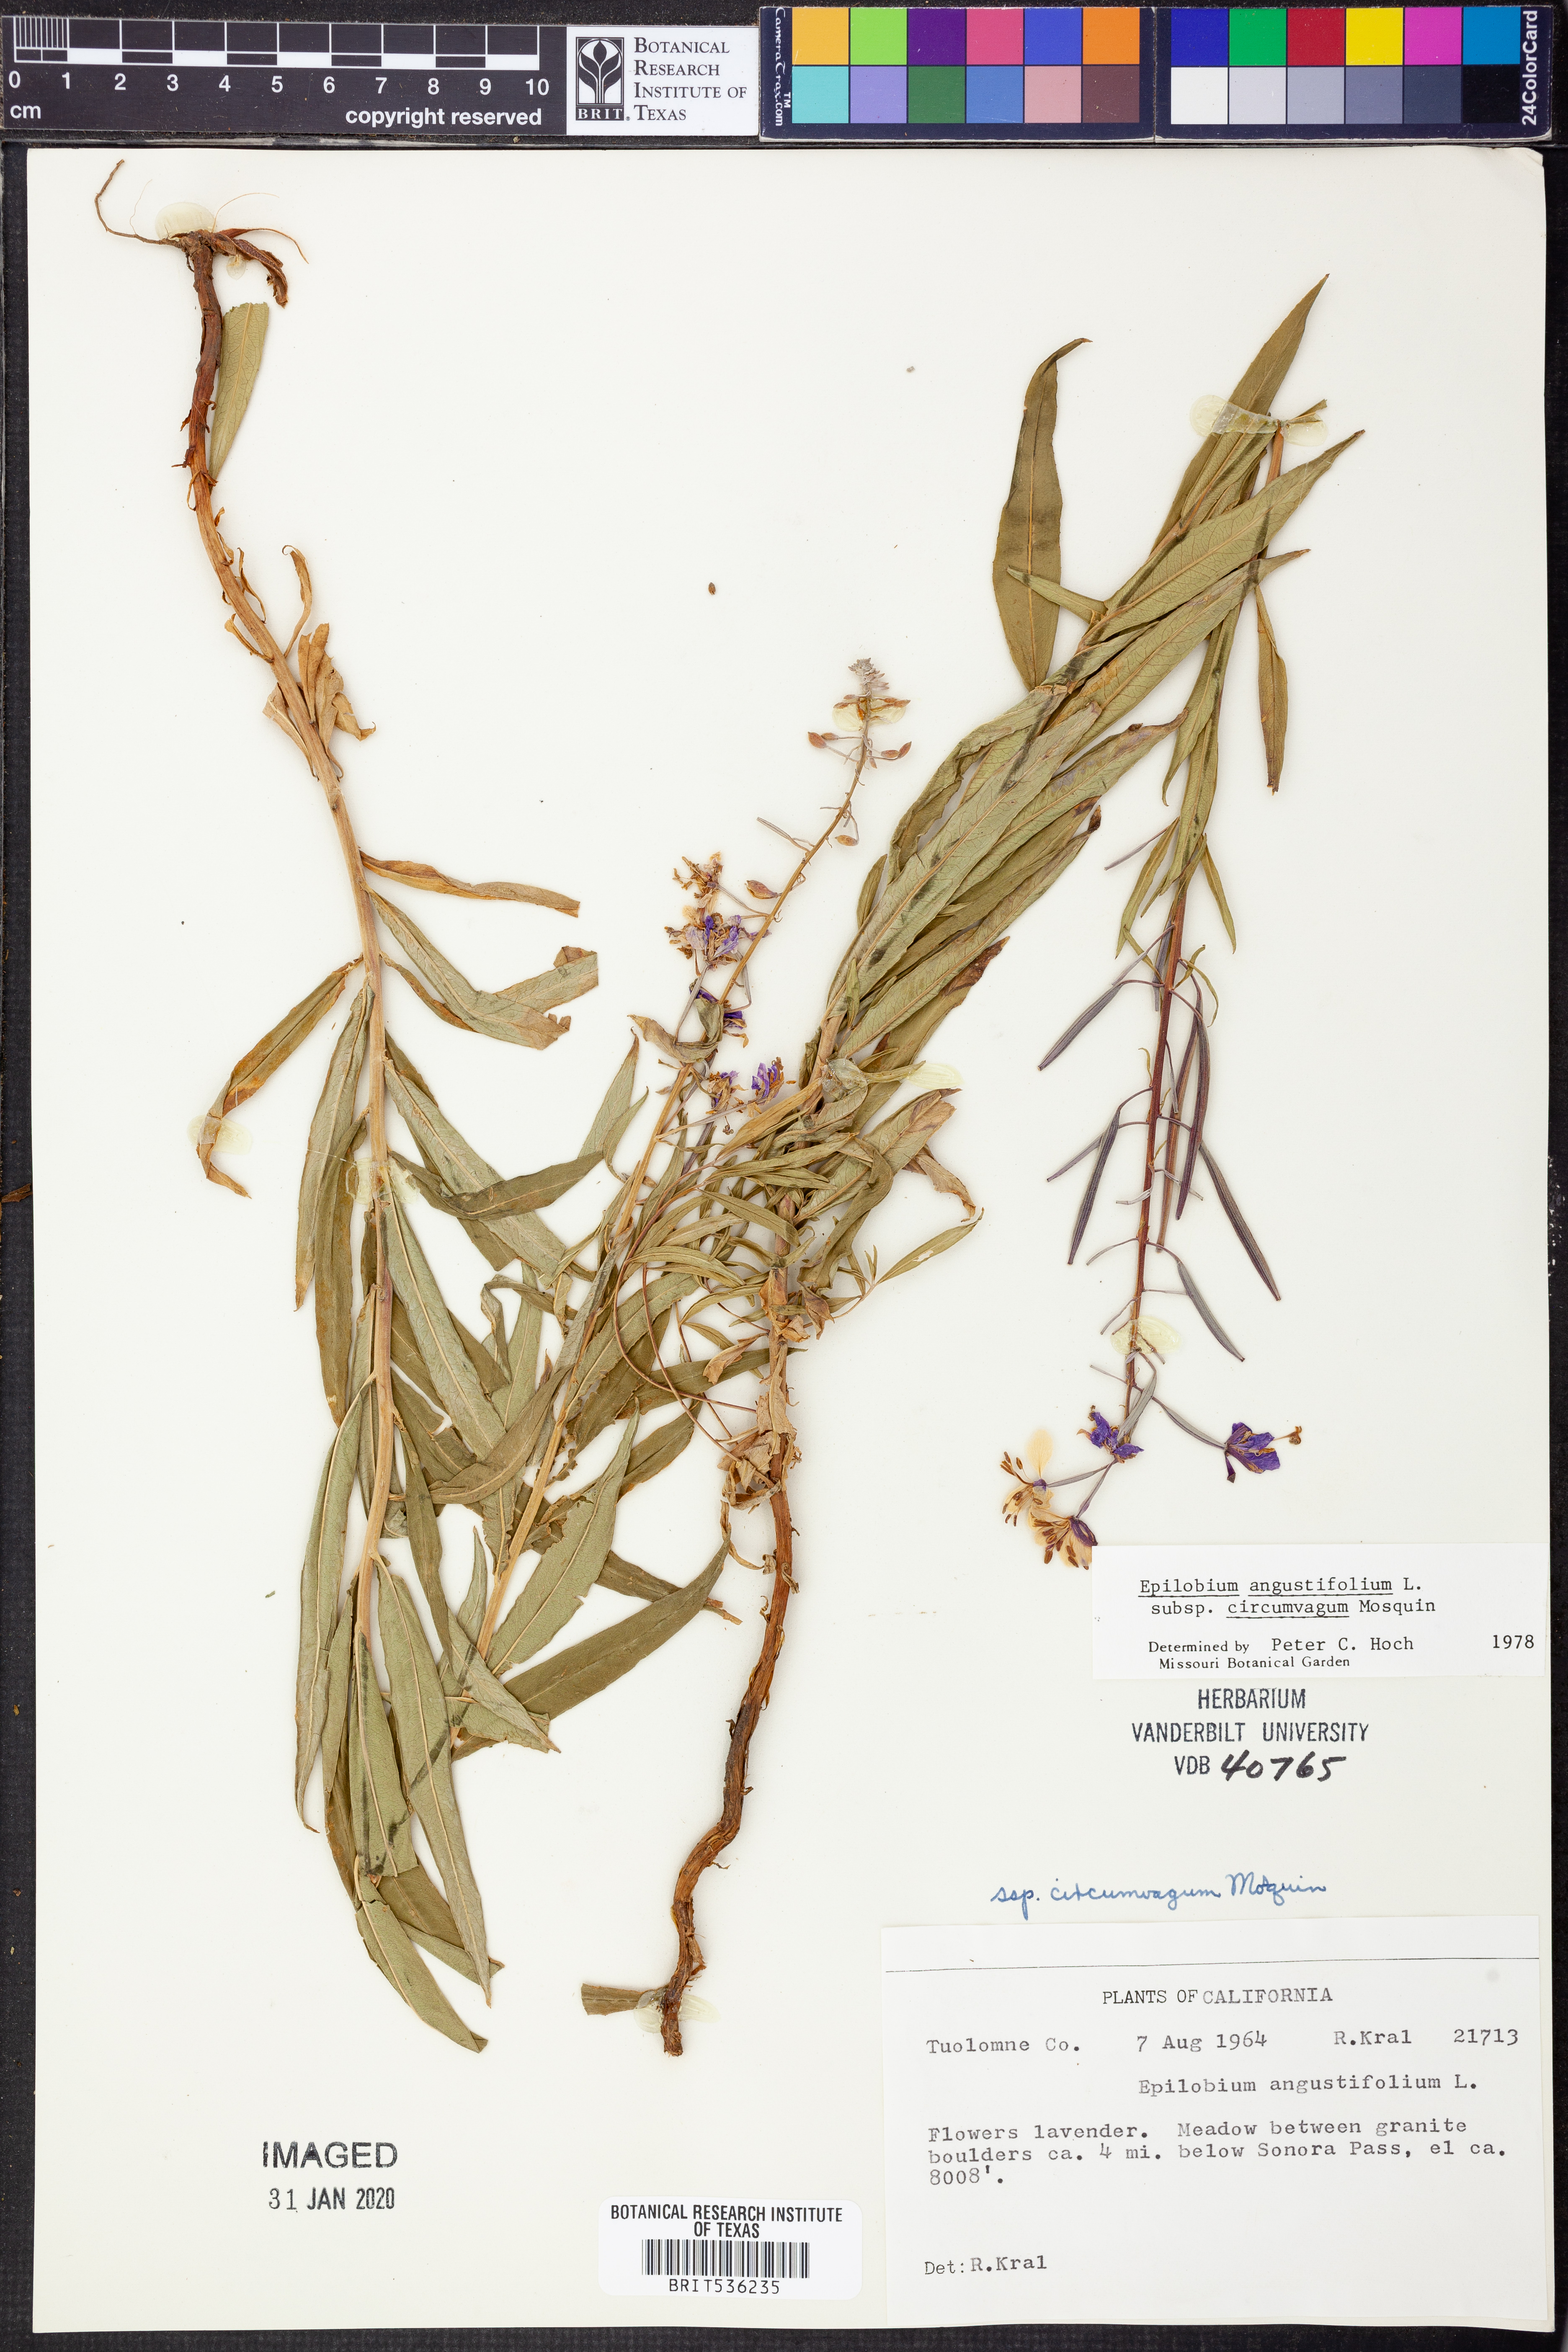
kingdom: Plantae
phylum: Tracheophyta
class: Magnoliopsida
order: Myrtales
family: Onagraceae
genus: Chamaenerion
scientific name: Chamaenerion angustifolium
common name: Fireweed
